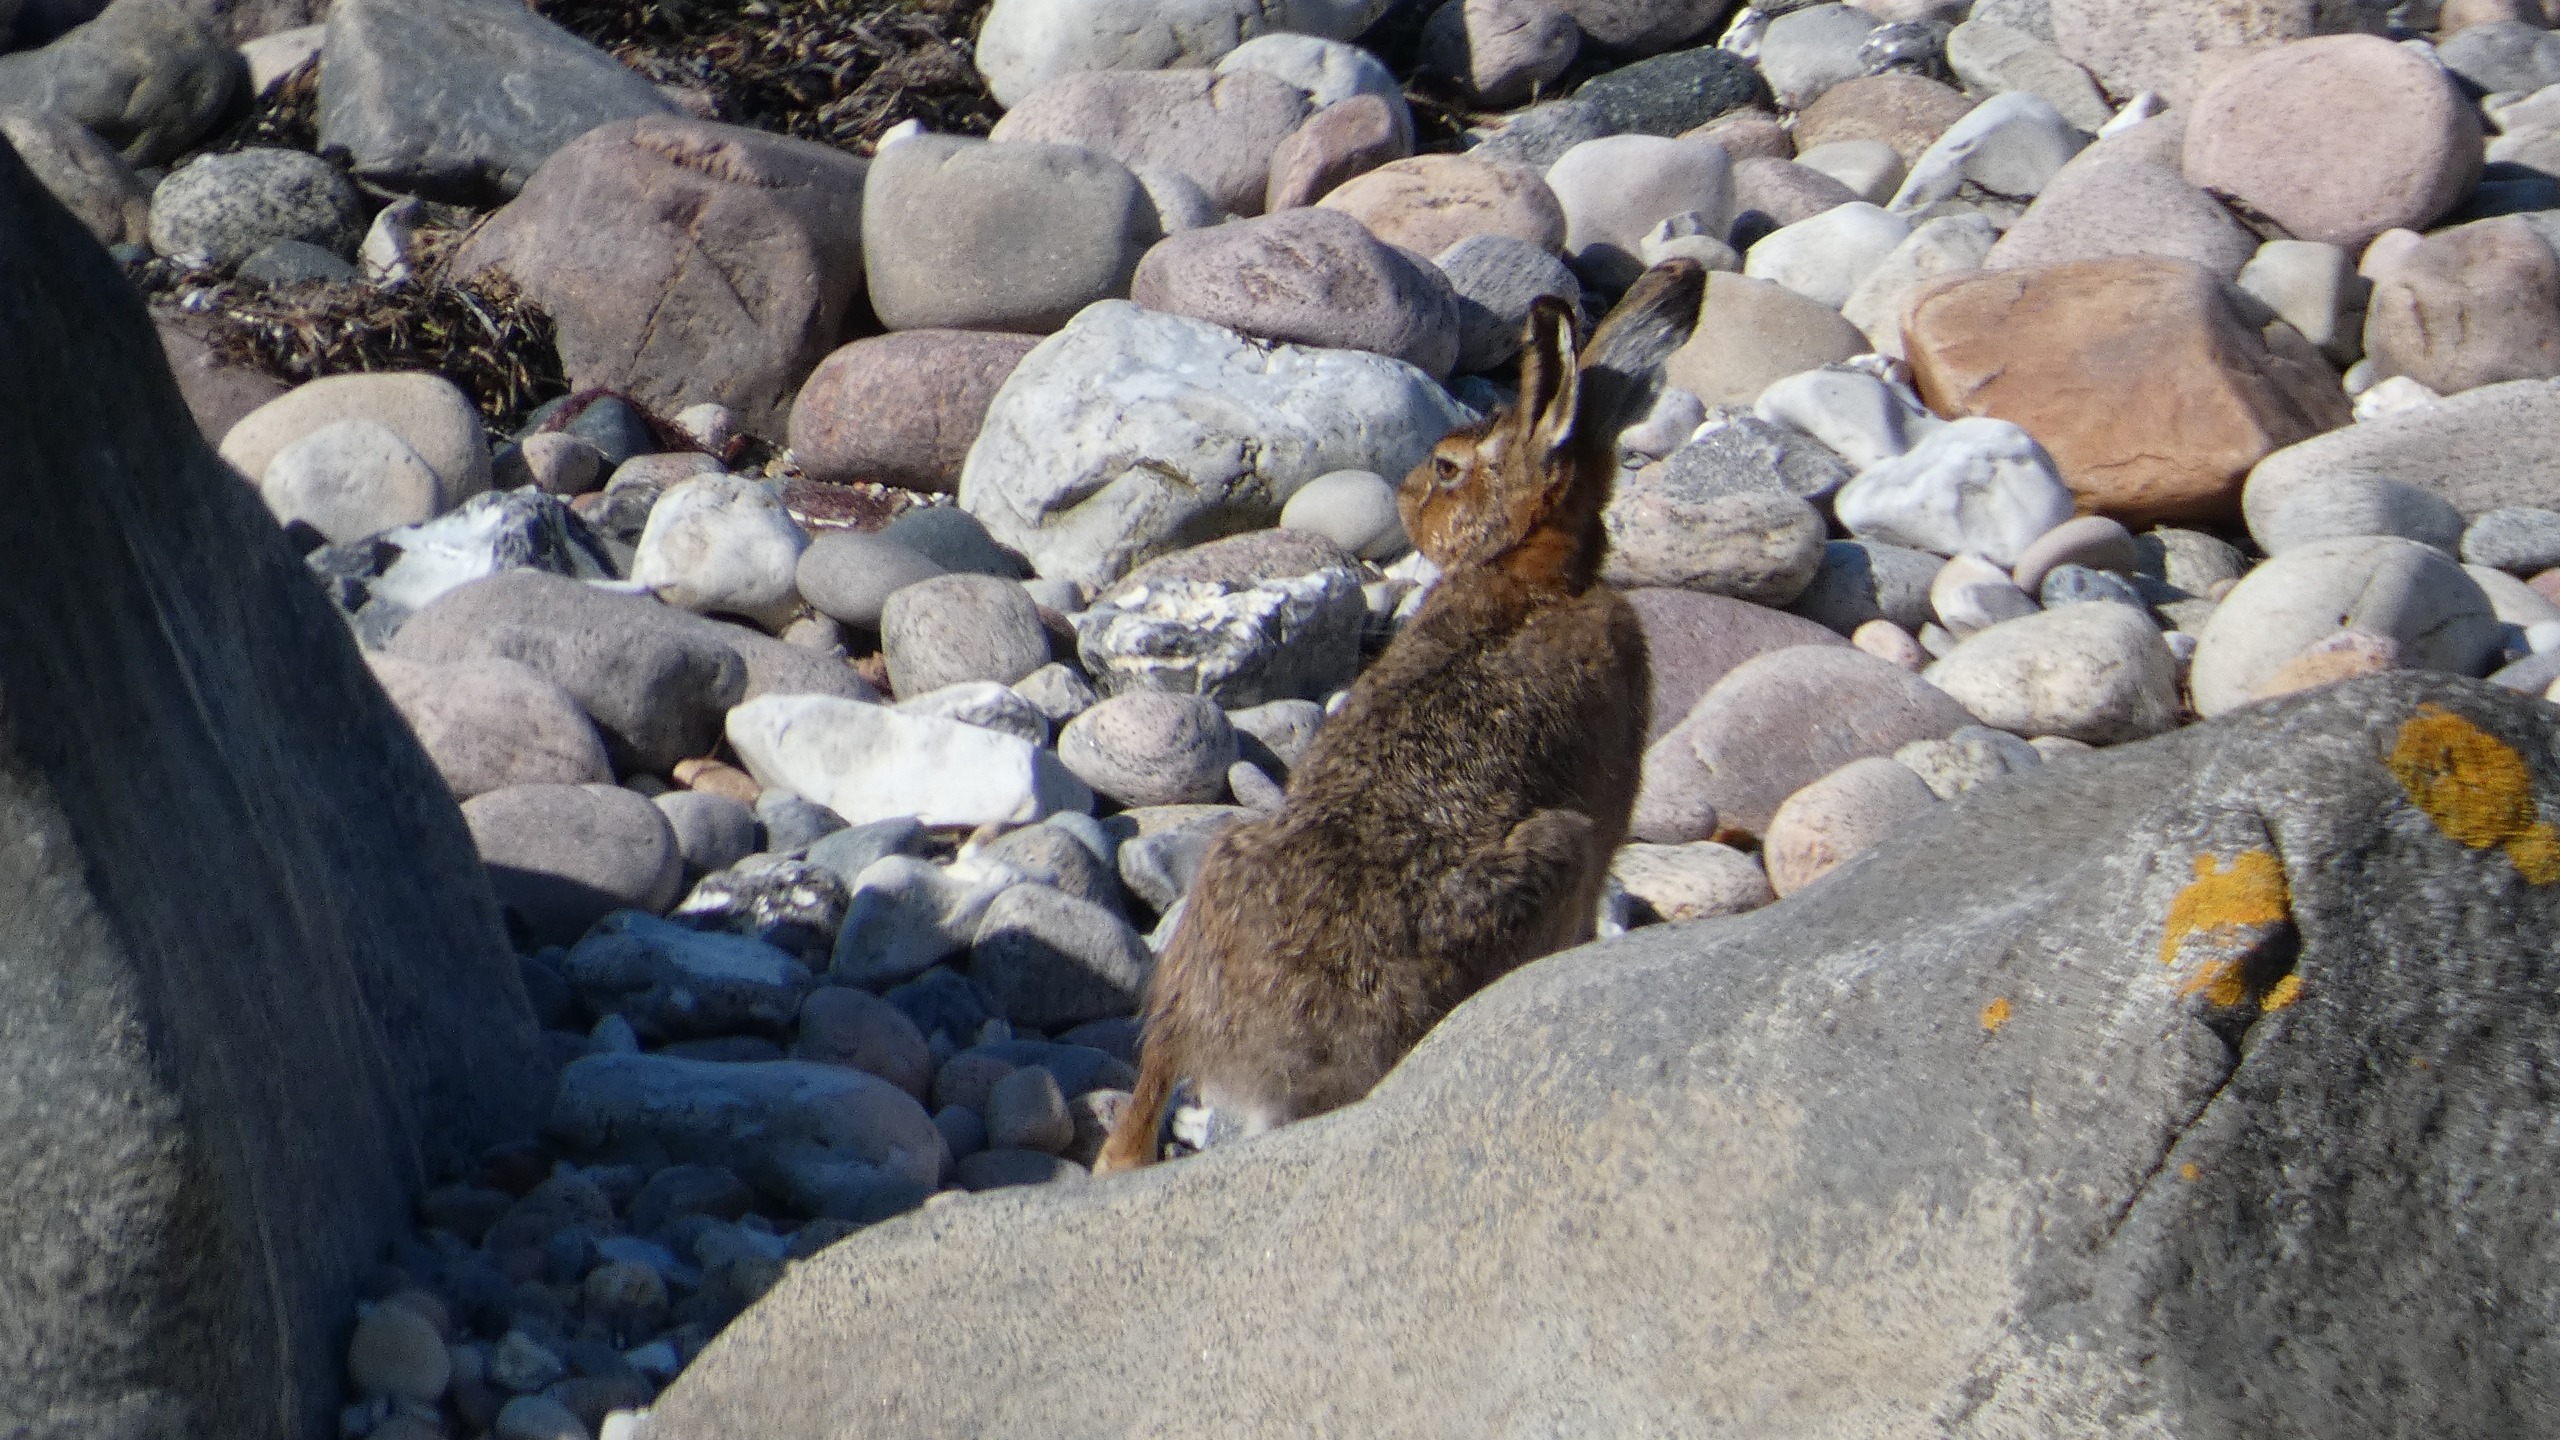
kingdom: Animalia
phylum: Chordata
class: Mammalia
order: Lagomorpha
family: Leporidae
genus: Lepus
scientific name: Lepus europaeus
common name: Hare
